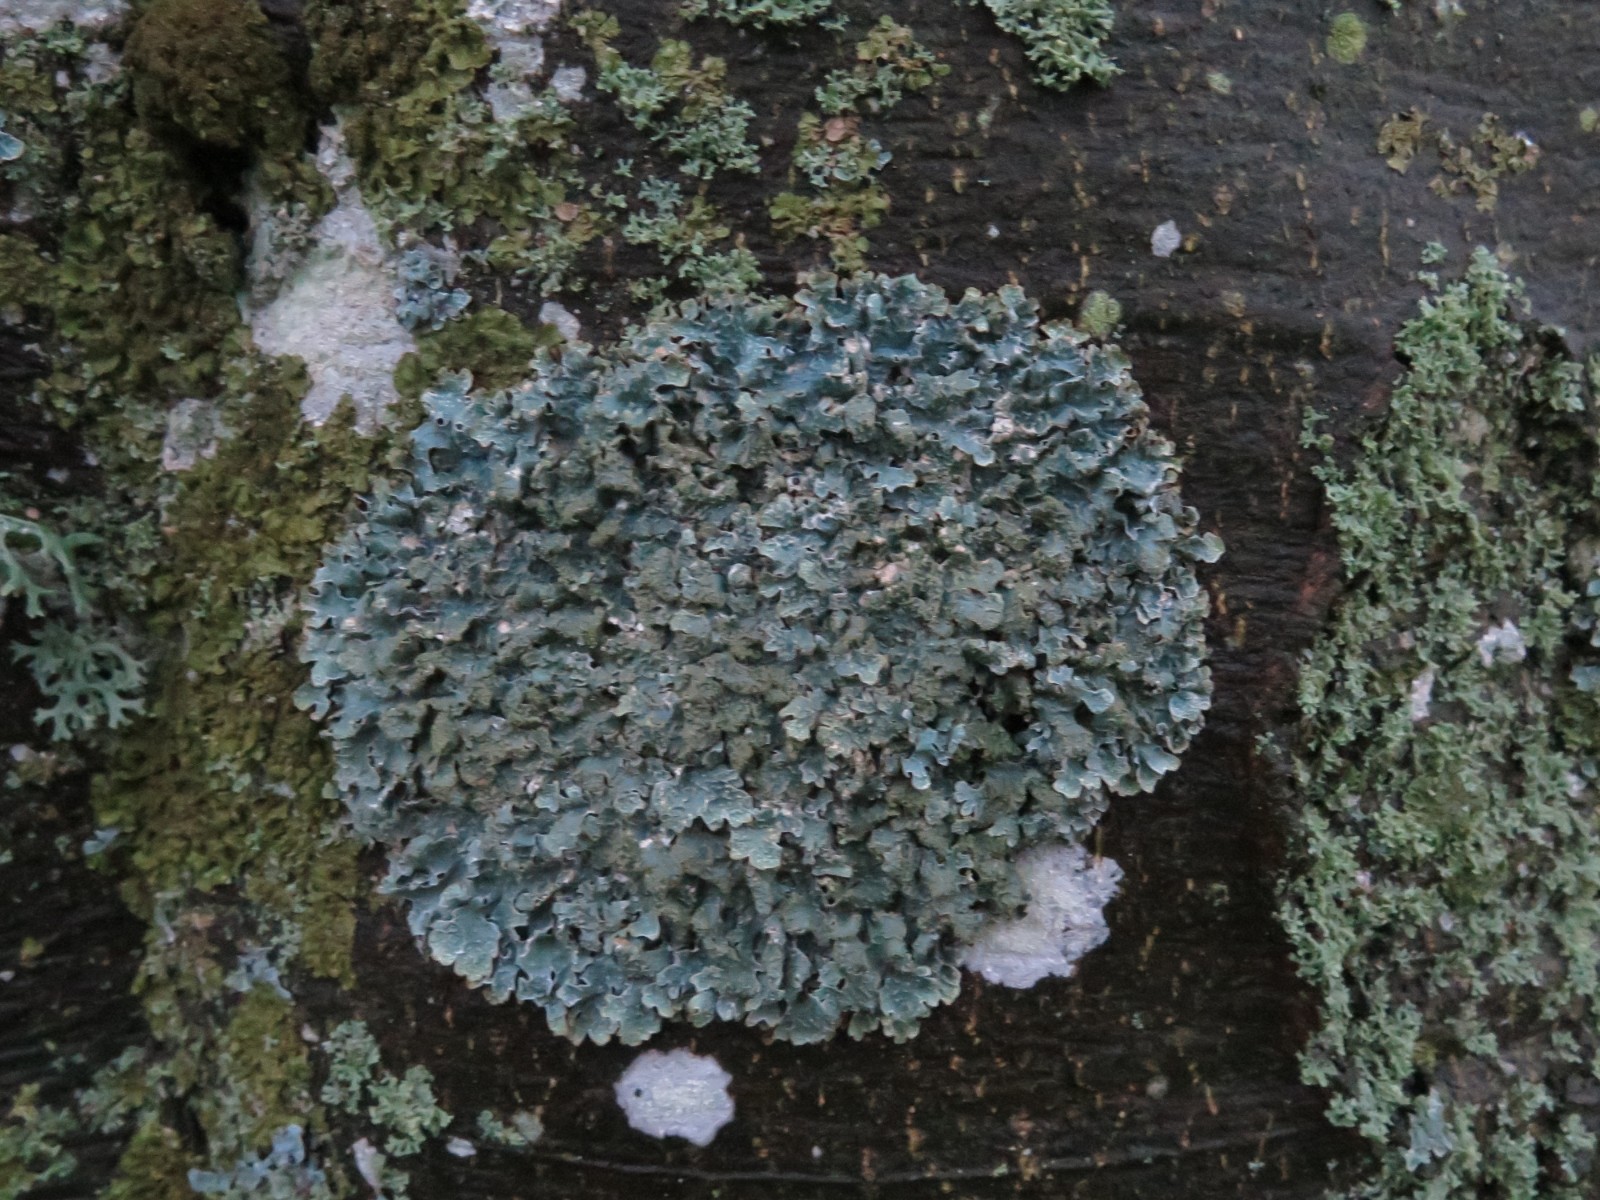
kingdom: Fungi
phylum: Ascomycota
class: Lecanoromycetes
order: Lecanorales
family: Parmeliaceae
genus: Parmelia
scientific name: Parmelia sulcata
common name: rynket skållav
